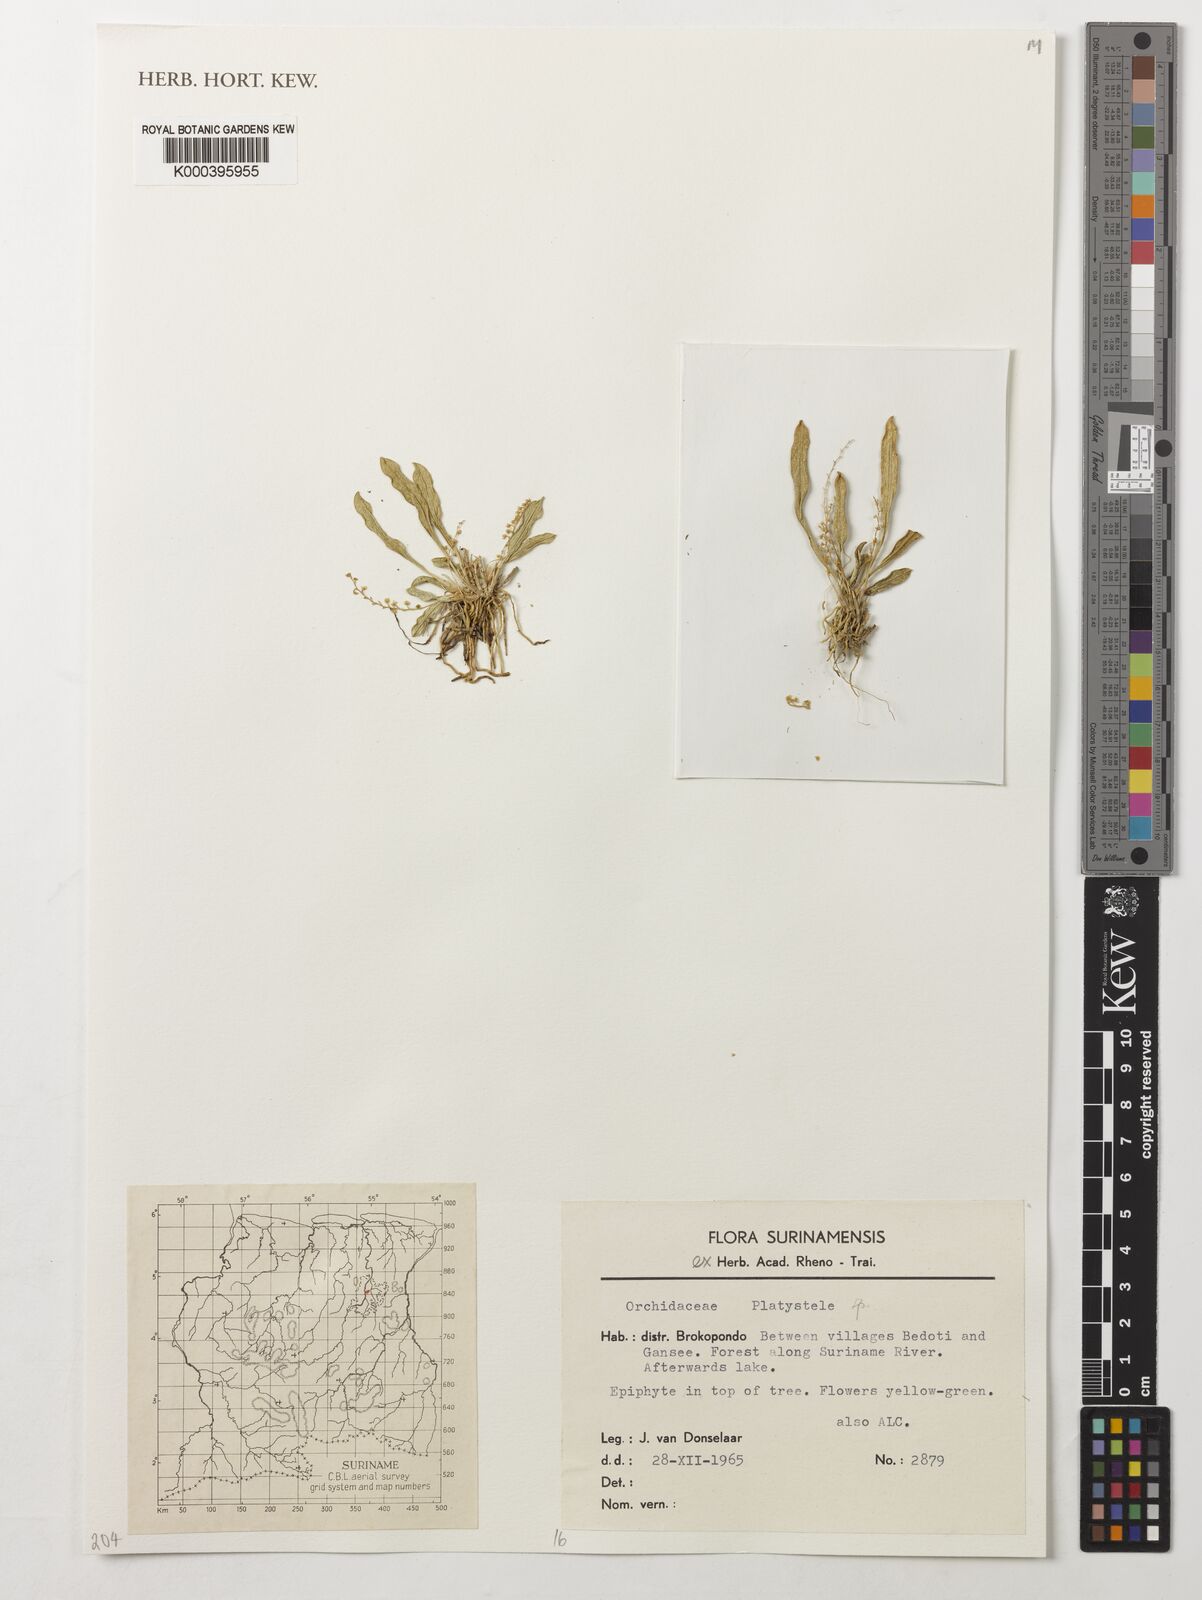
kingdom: Plantae
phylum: Tracheophyta
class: Liliopsida
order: Asparagales
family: Orchidaceae
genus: Platystele
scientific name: Platystele
